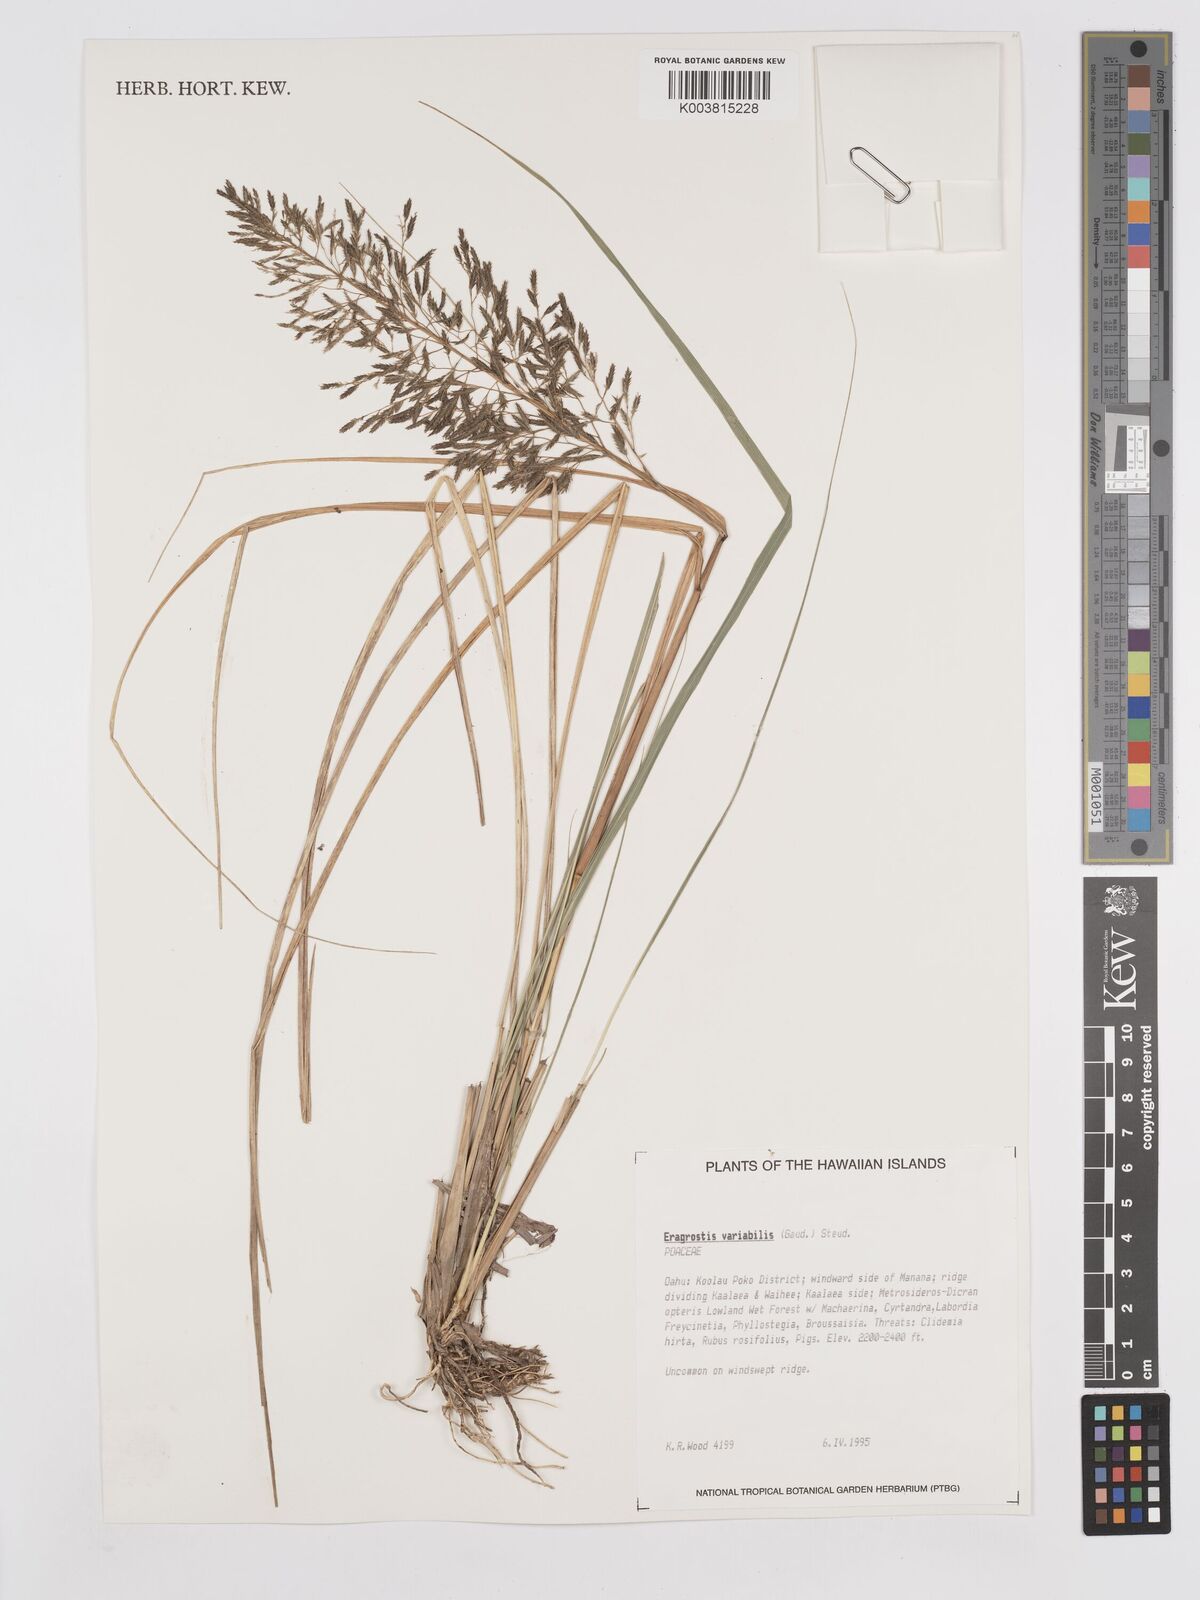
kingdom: Plantae
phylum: Tracheophyta
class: Liliopsida
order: Poales
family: Poaceae
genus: Eragrostis
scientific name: Eragrostis variabilis
